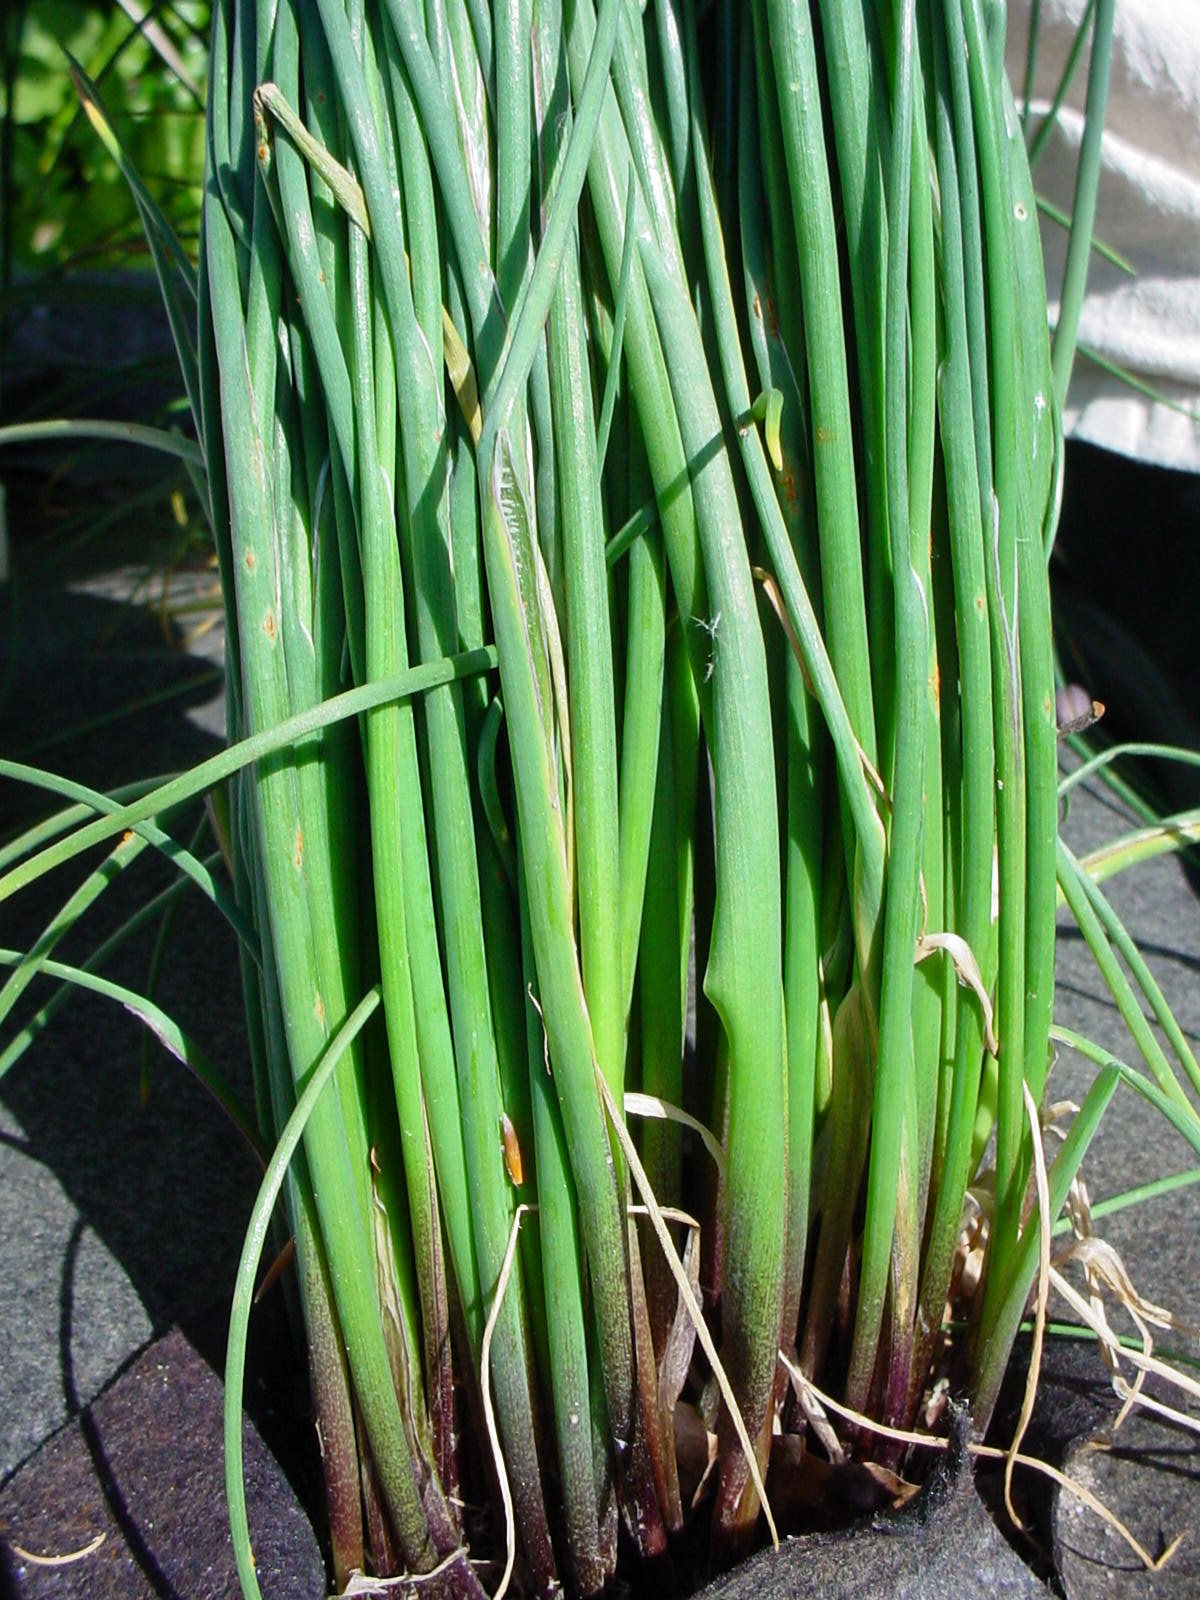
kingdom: Plantae
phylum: Tracheophyta
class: Liliopsida
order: Asparagales
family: Amaryllidaceae
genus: Allium
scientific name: Allium schoenoprasum
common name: Chives
